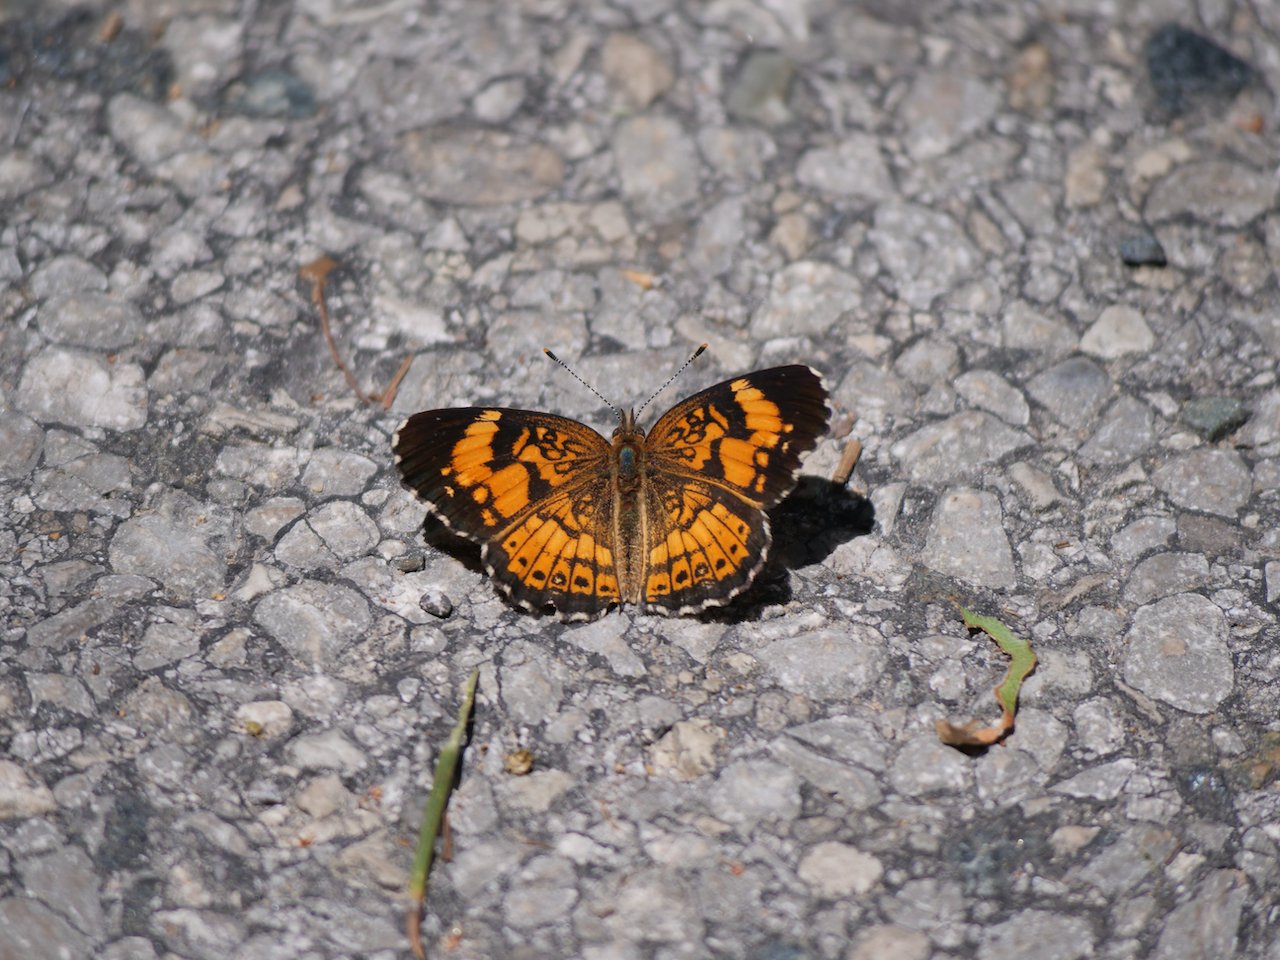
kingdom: Animalia
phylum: Arthropoda
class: Insecta
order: Lepidoptera
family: Nymphalidae
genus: Chlosyne
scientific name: Chlosyne nycteis
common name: Silvery Checkerspot
